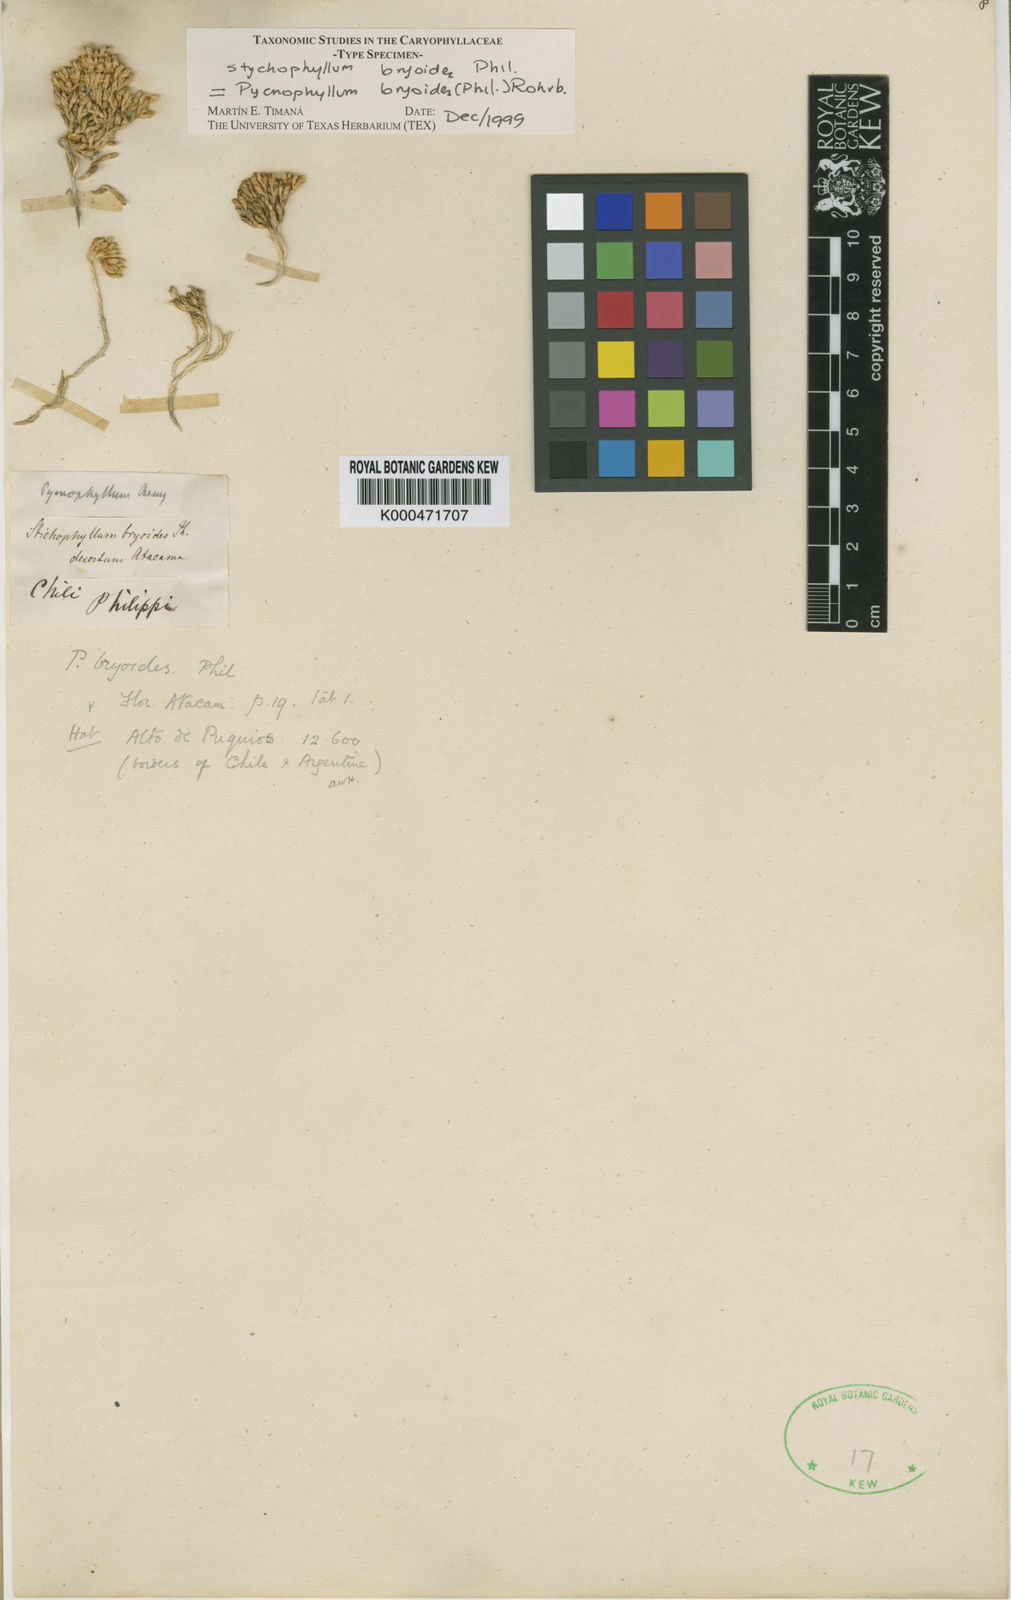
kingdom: Plantae
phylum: Tracheophyta
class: Magnoliopsida
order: Caryophyllales
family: Caryophyllaceae
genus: Pycnophyllum
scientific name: Pycnophyllum bryoides
